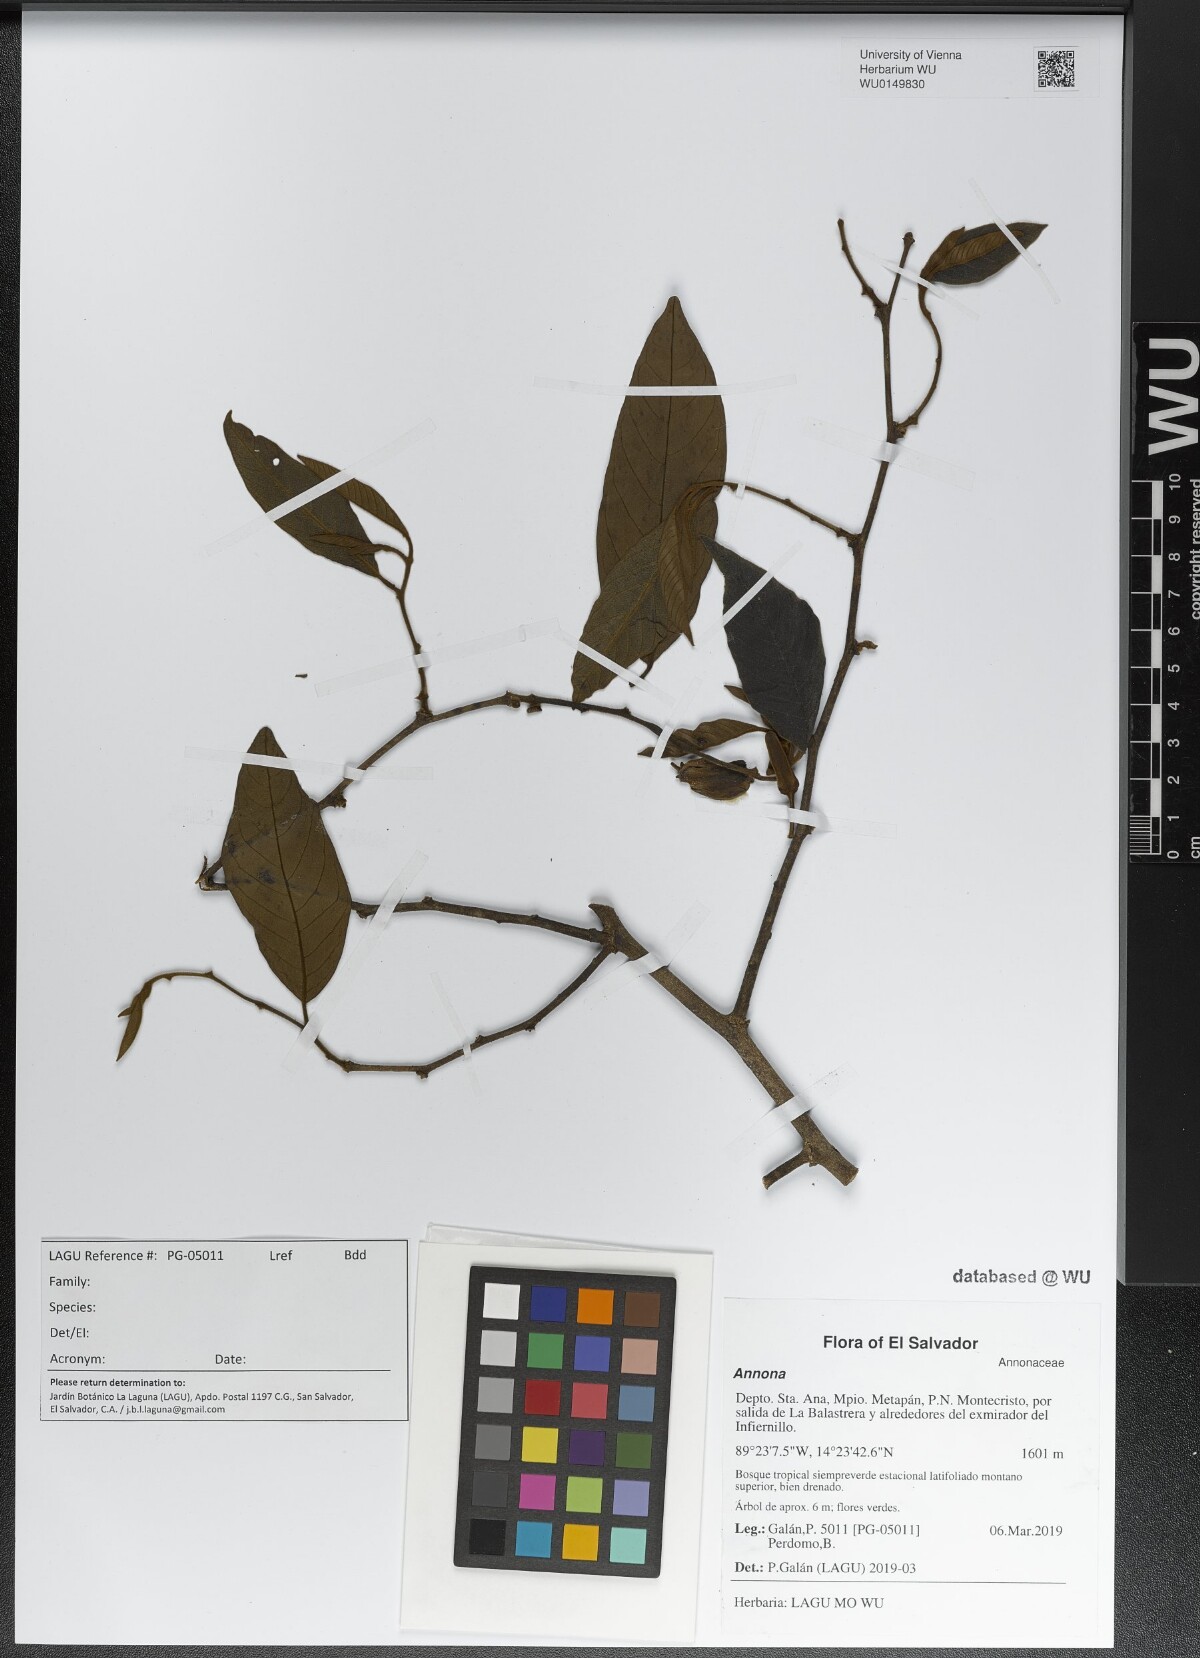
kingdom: Plantae
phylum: Tracheophyta
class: Magnoliopsida
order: Magnoliales
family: Annonaceae
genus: Annona
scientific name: Annona
